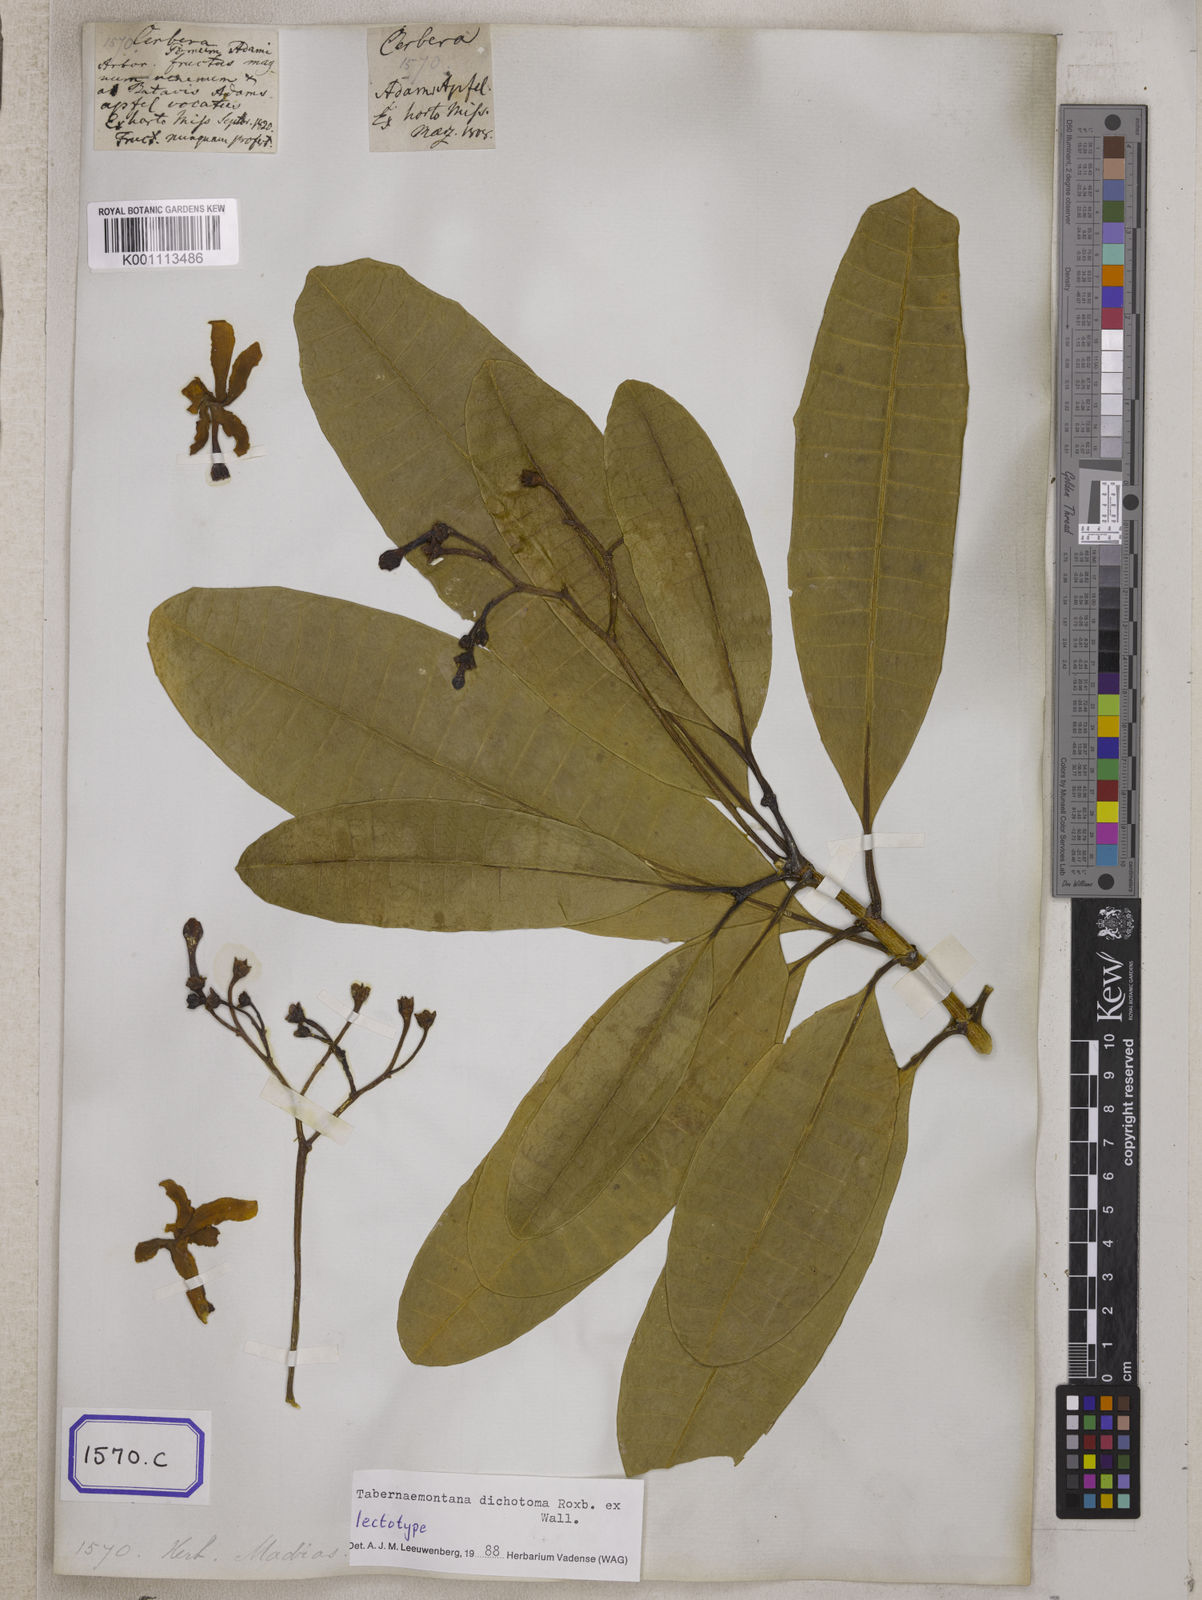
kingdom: Plantae
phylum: Tracheophyta
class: Magnoliopsida
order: Gentianales
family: Apocynaceae
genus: Tabernaemontana
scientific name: Tabernaemontana
